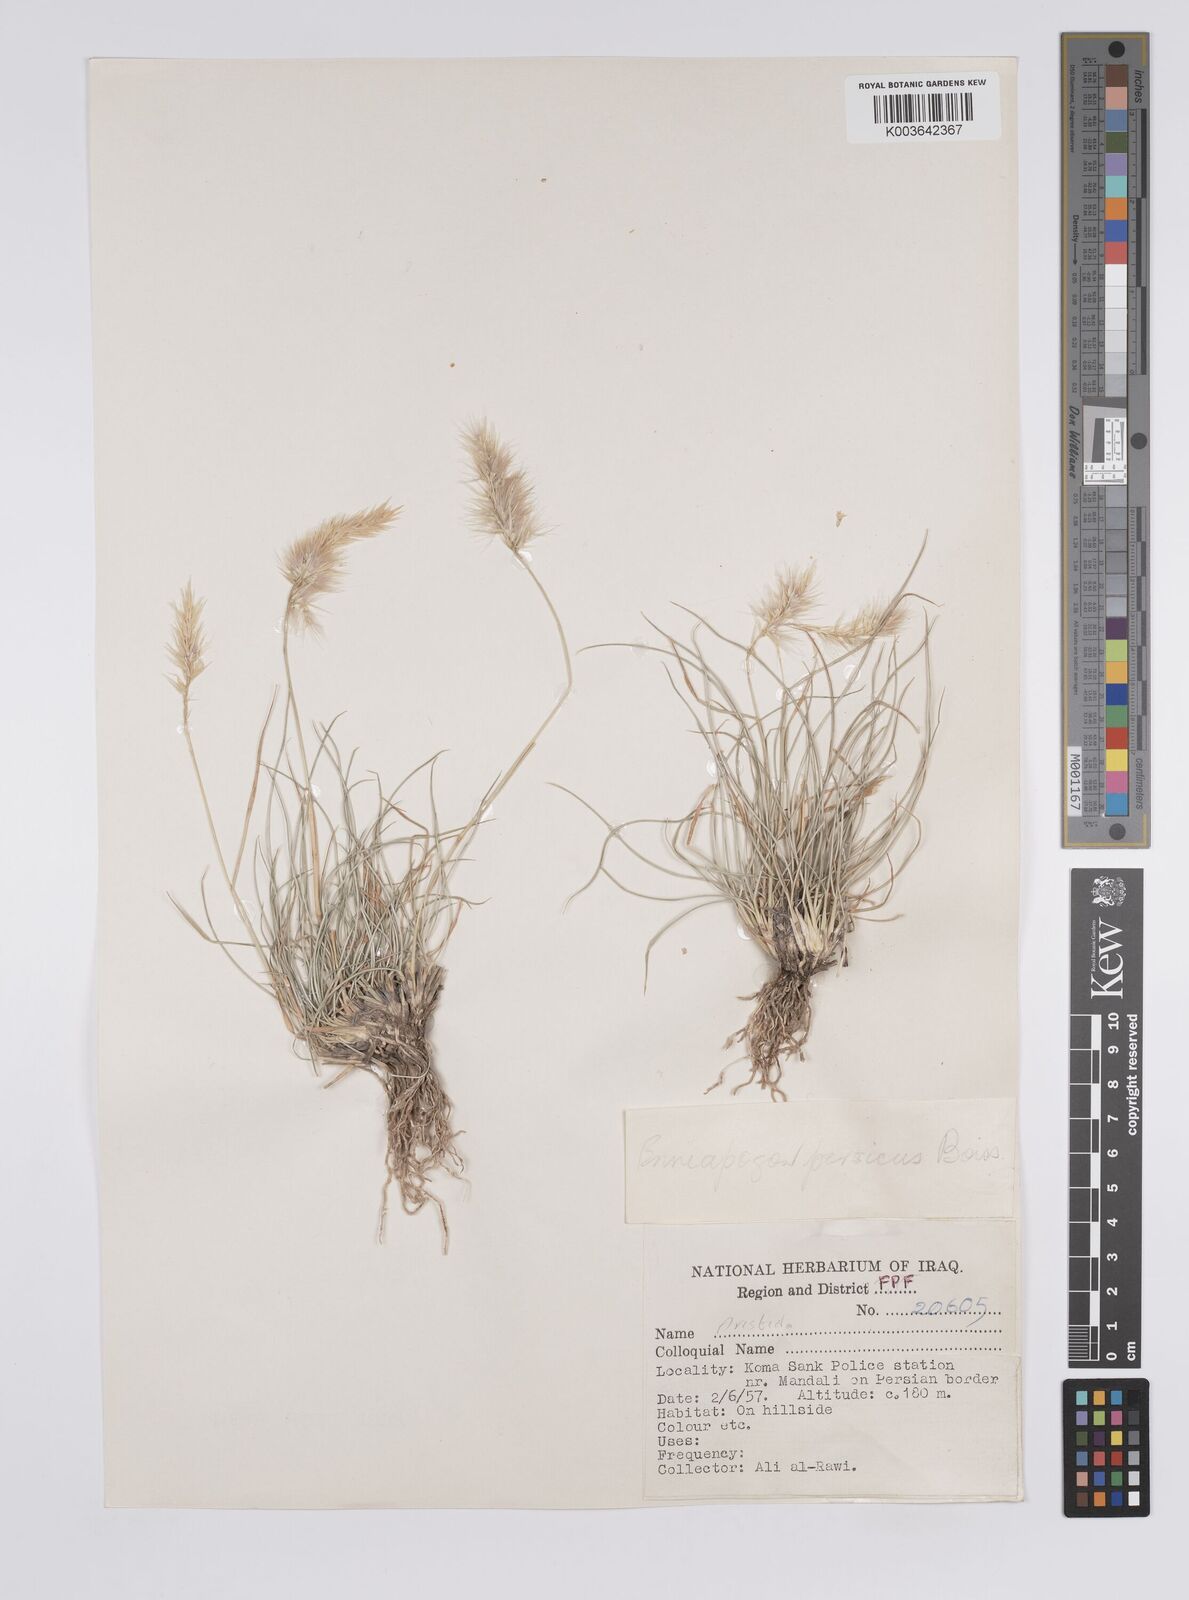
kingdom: Plantae
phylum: Tracheophyta
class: Liliopsida
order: Poales
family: Poaceae
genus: Enneapogon
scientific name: Enneapogon persicus
